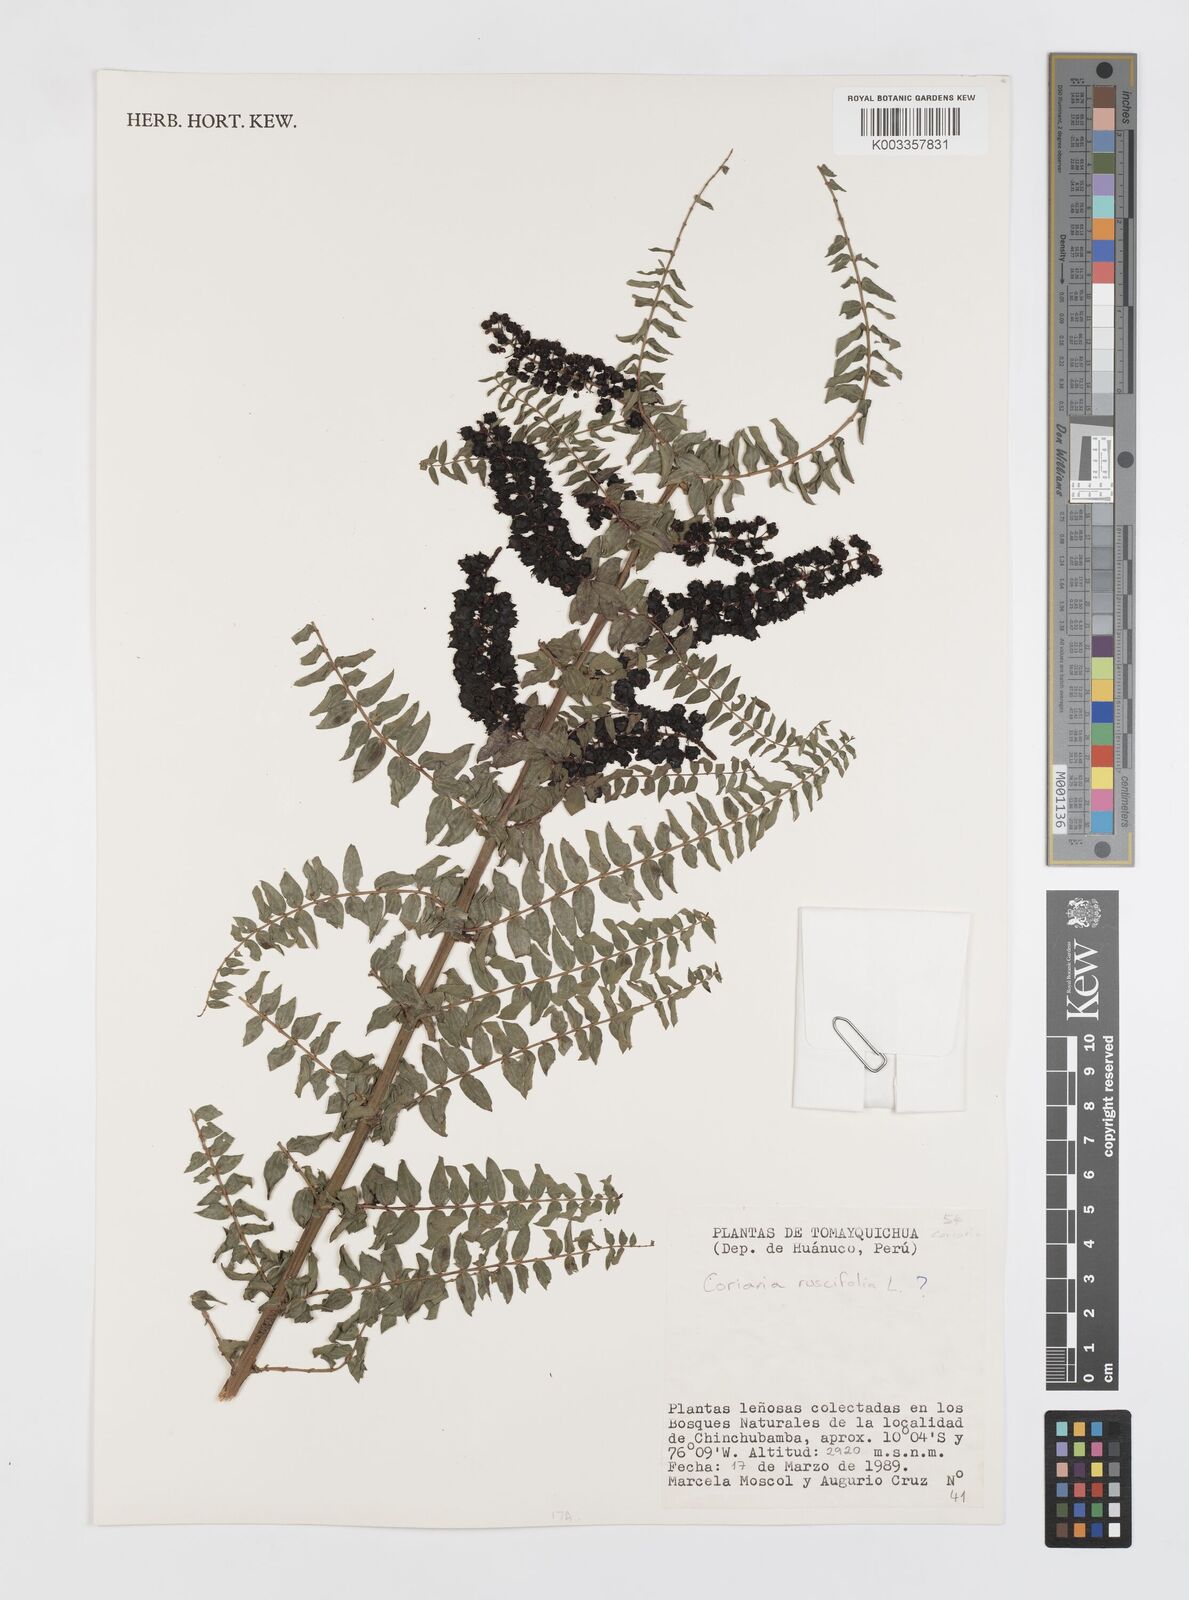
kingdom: Plantae
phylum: Tracheophyta
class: Magnoliopsida
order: Cucurbitales
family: Coriariaceae
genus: Coriaria
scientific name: Coriaria microphylla
